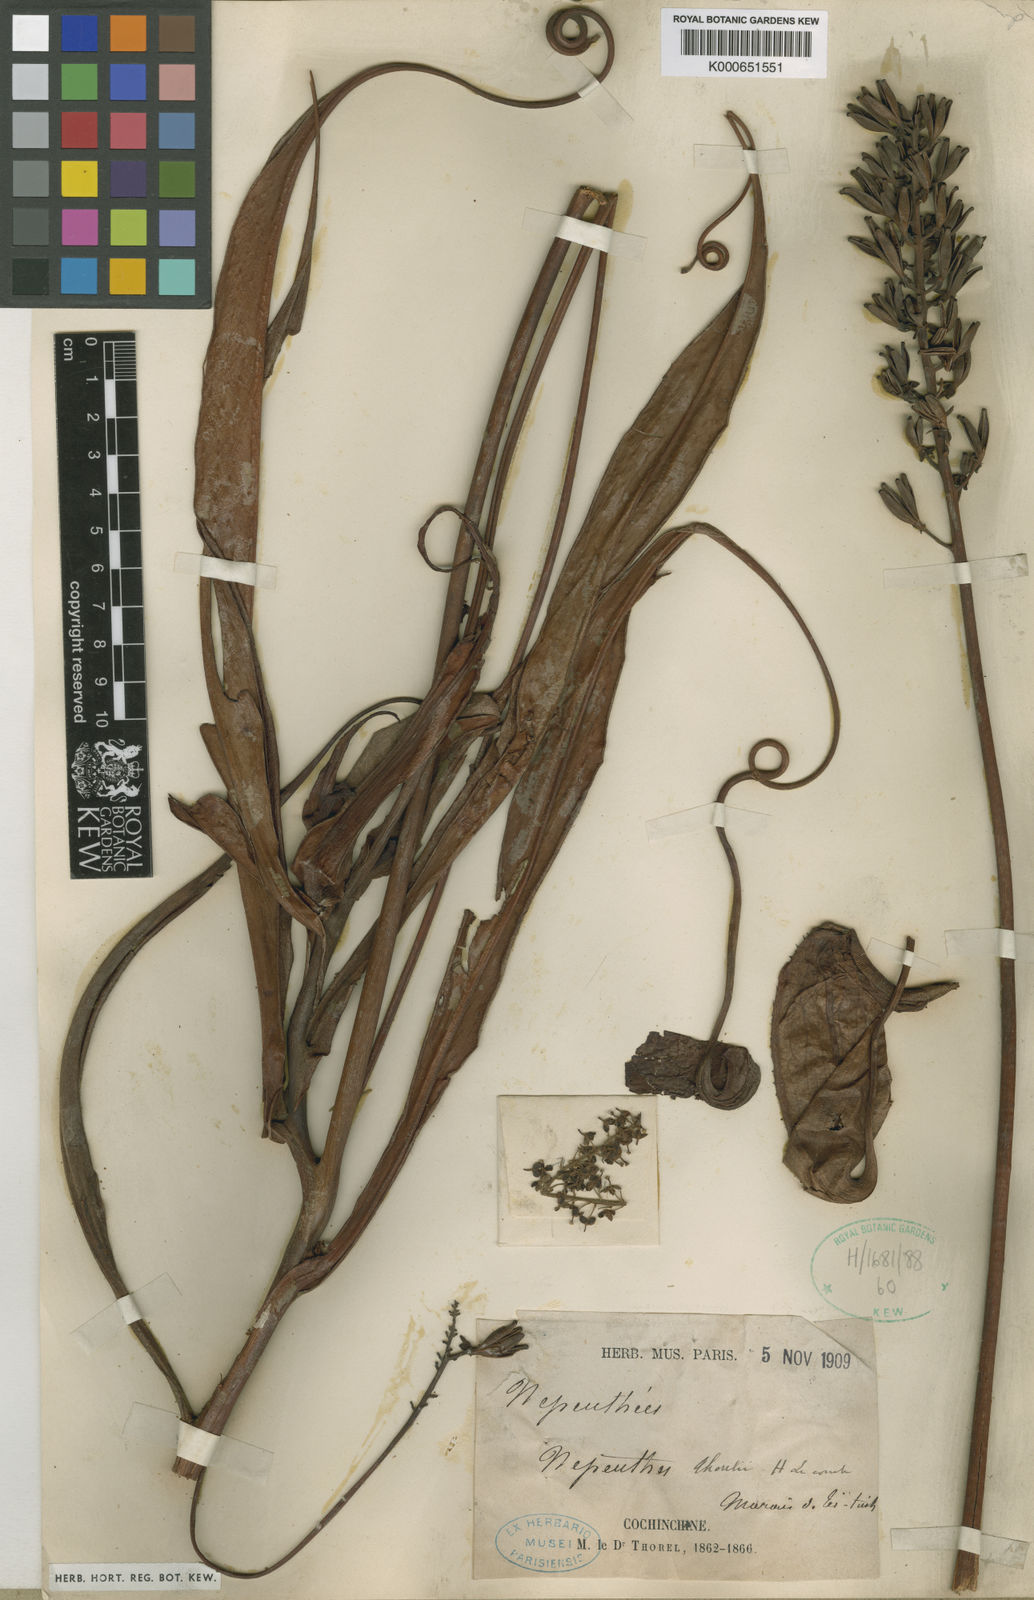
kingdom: Plantae
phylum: Tracheophyta
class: Magnoliopsida
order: Caryophyllales
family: Nepenthaceae
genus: Nepenthes
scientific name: Nepenthes thorelii
